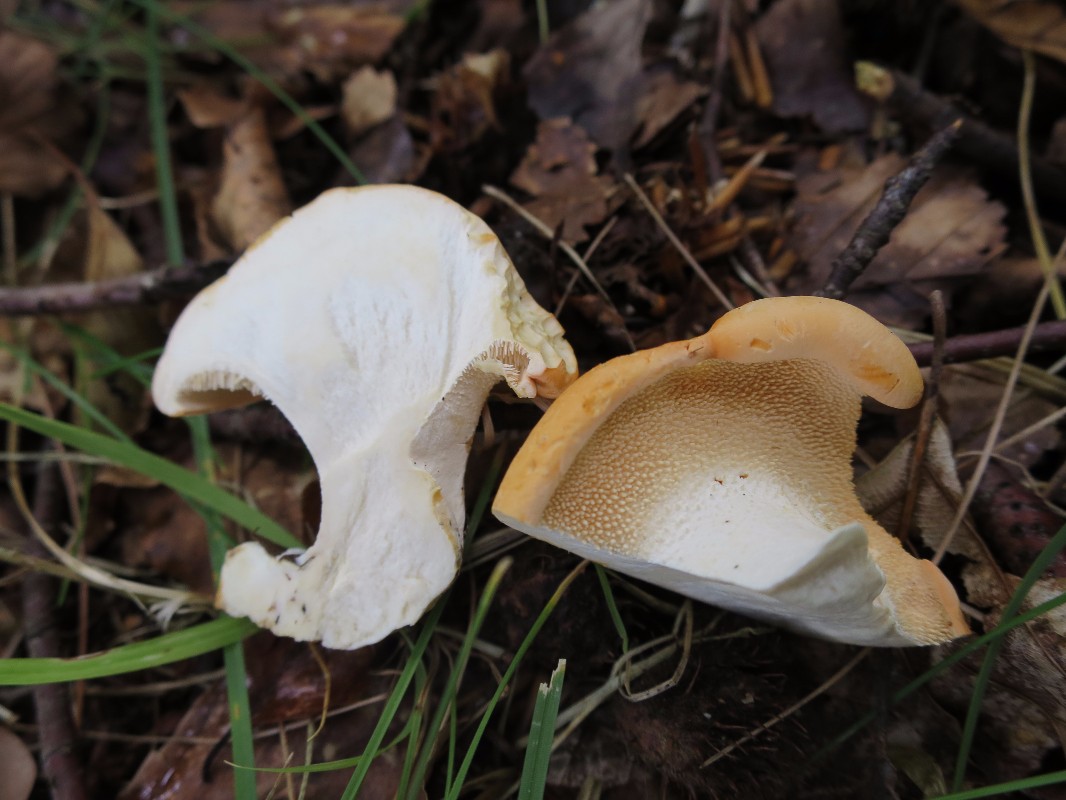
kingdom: Fungi
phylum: Basidiomycota
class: Agaricomycetes
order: Cantharellales
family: Hydnaceae
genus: Hydnum
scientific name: Hydnum repandum
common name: almindelig pigsvamp
